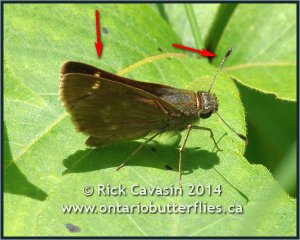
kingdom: Animalia
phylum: Arthropoda
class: Insecta
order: Lepidoptera
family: Hesperiidae
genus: Vernia
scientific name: Vernia verna
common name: Little Glassywing
